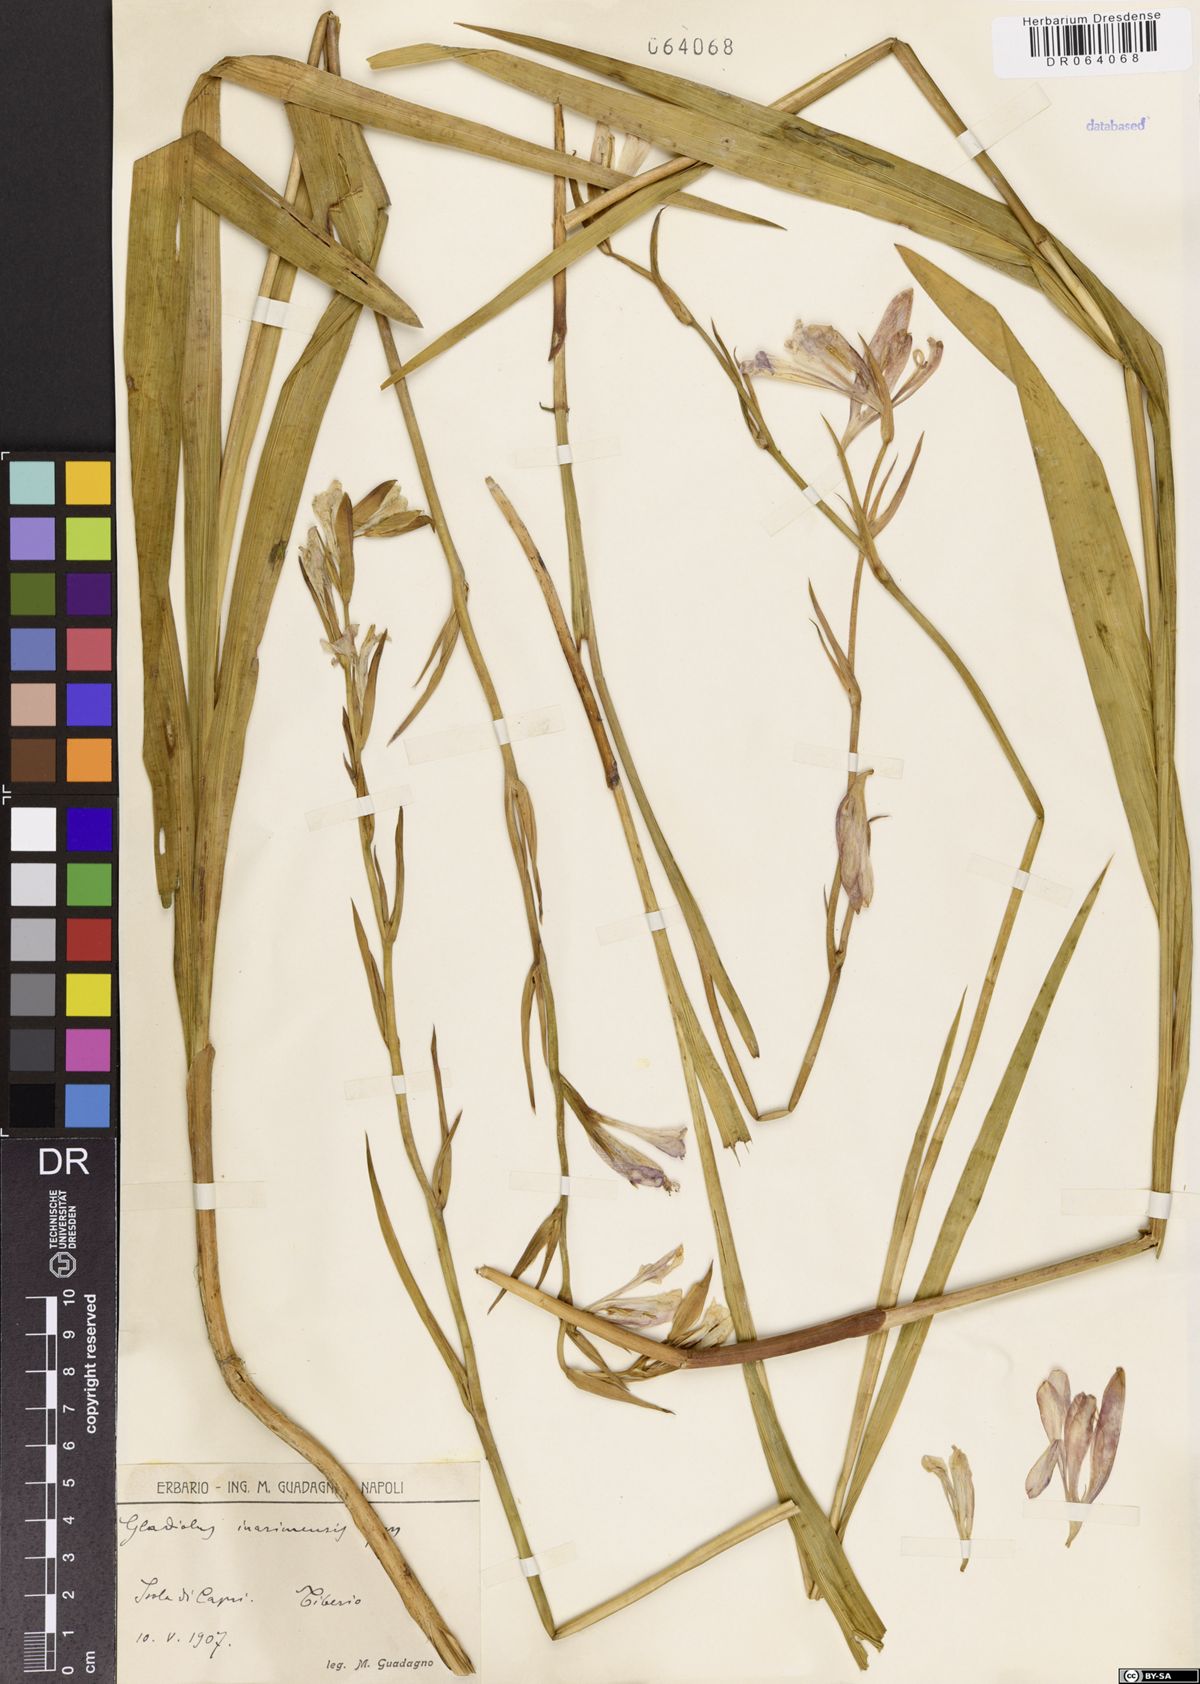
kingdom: Plantae
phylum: Tracheophyta
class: Liliopsida
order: Asparagales
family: Iridaceae
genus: Gladiolus
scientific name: Gladiolus inarimensis
